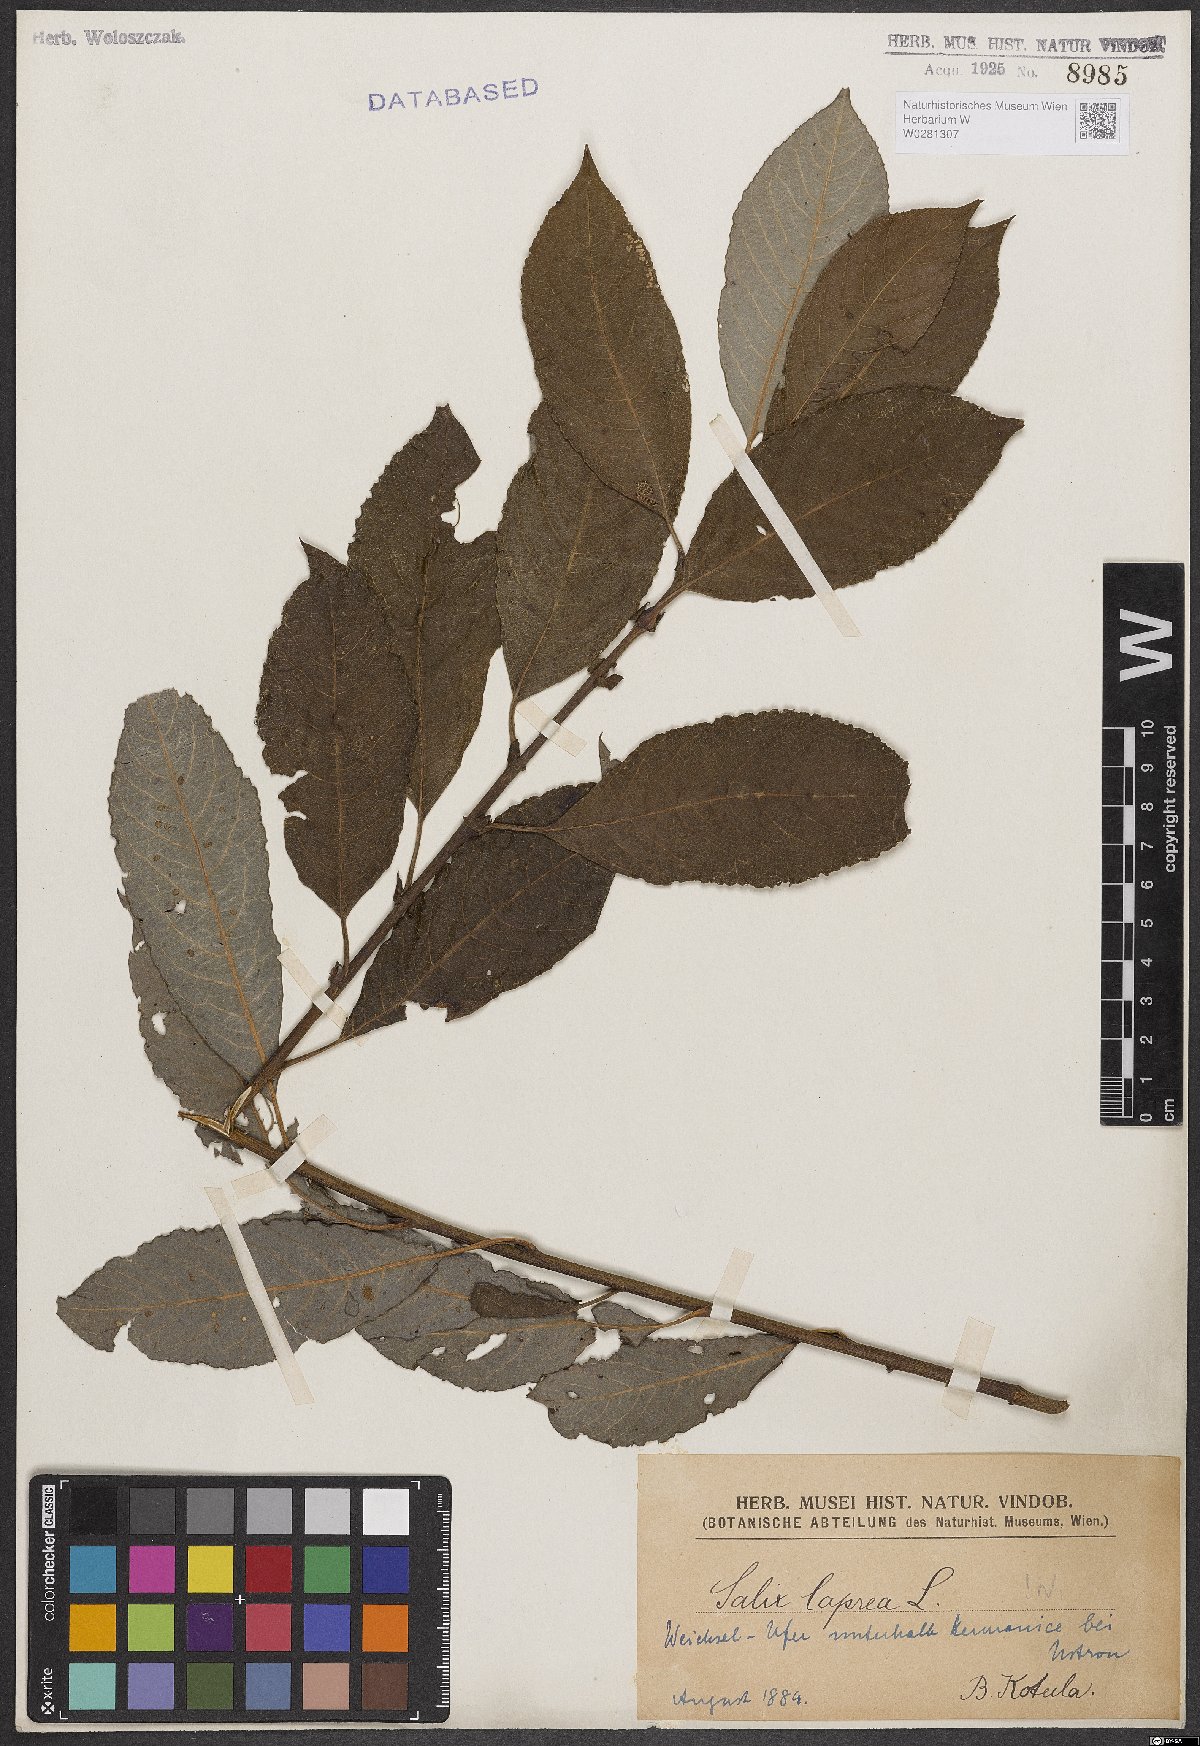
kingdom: Plantae
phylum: Tracheophyta
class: Magnoliopsida
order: Malpighiales
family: Salicaceae
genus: Salix
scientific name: Salix caprea
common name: Goat willow
